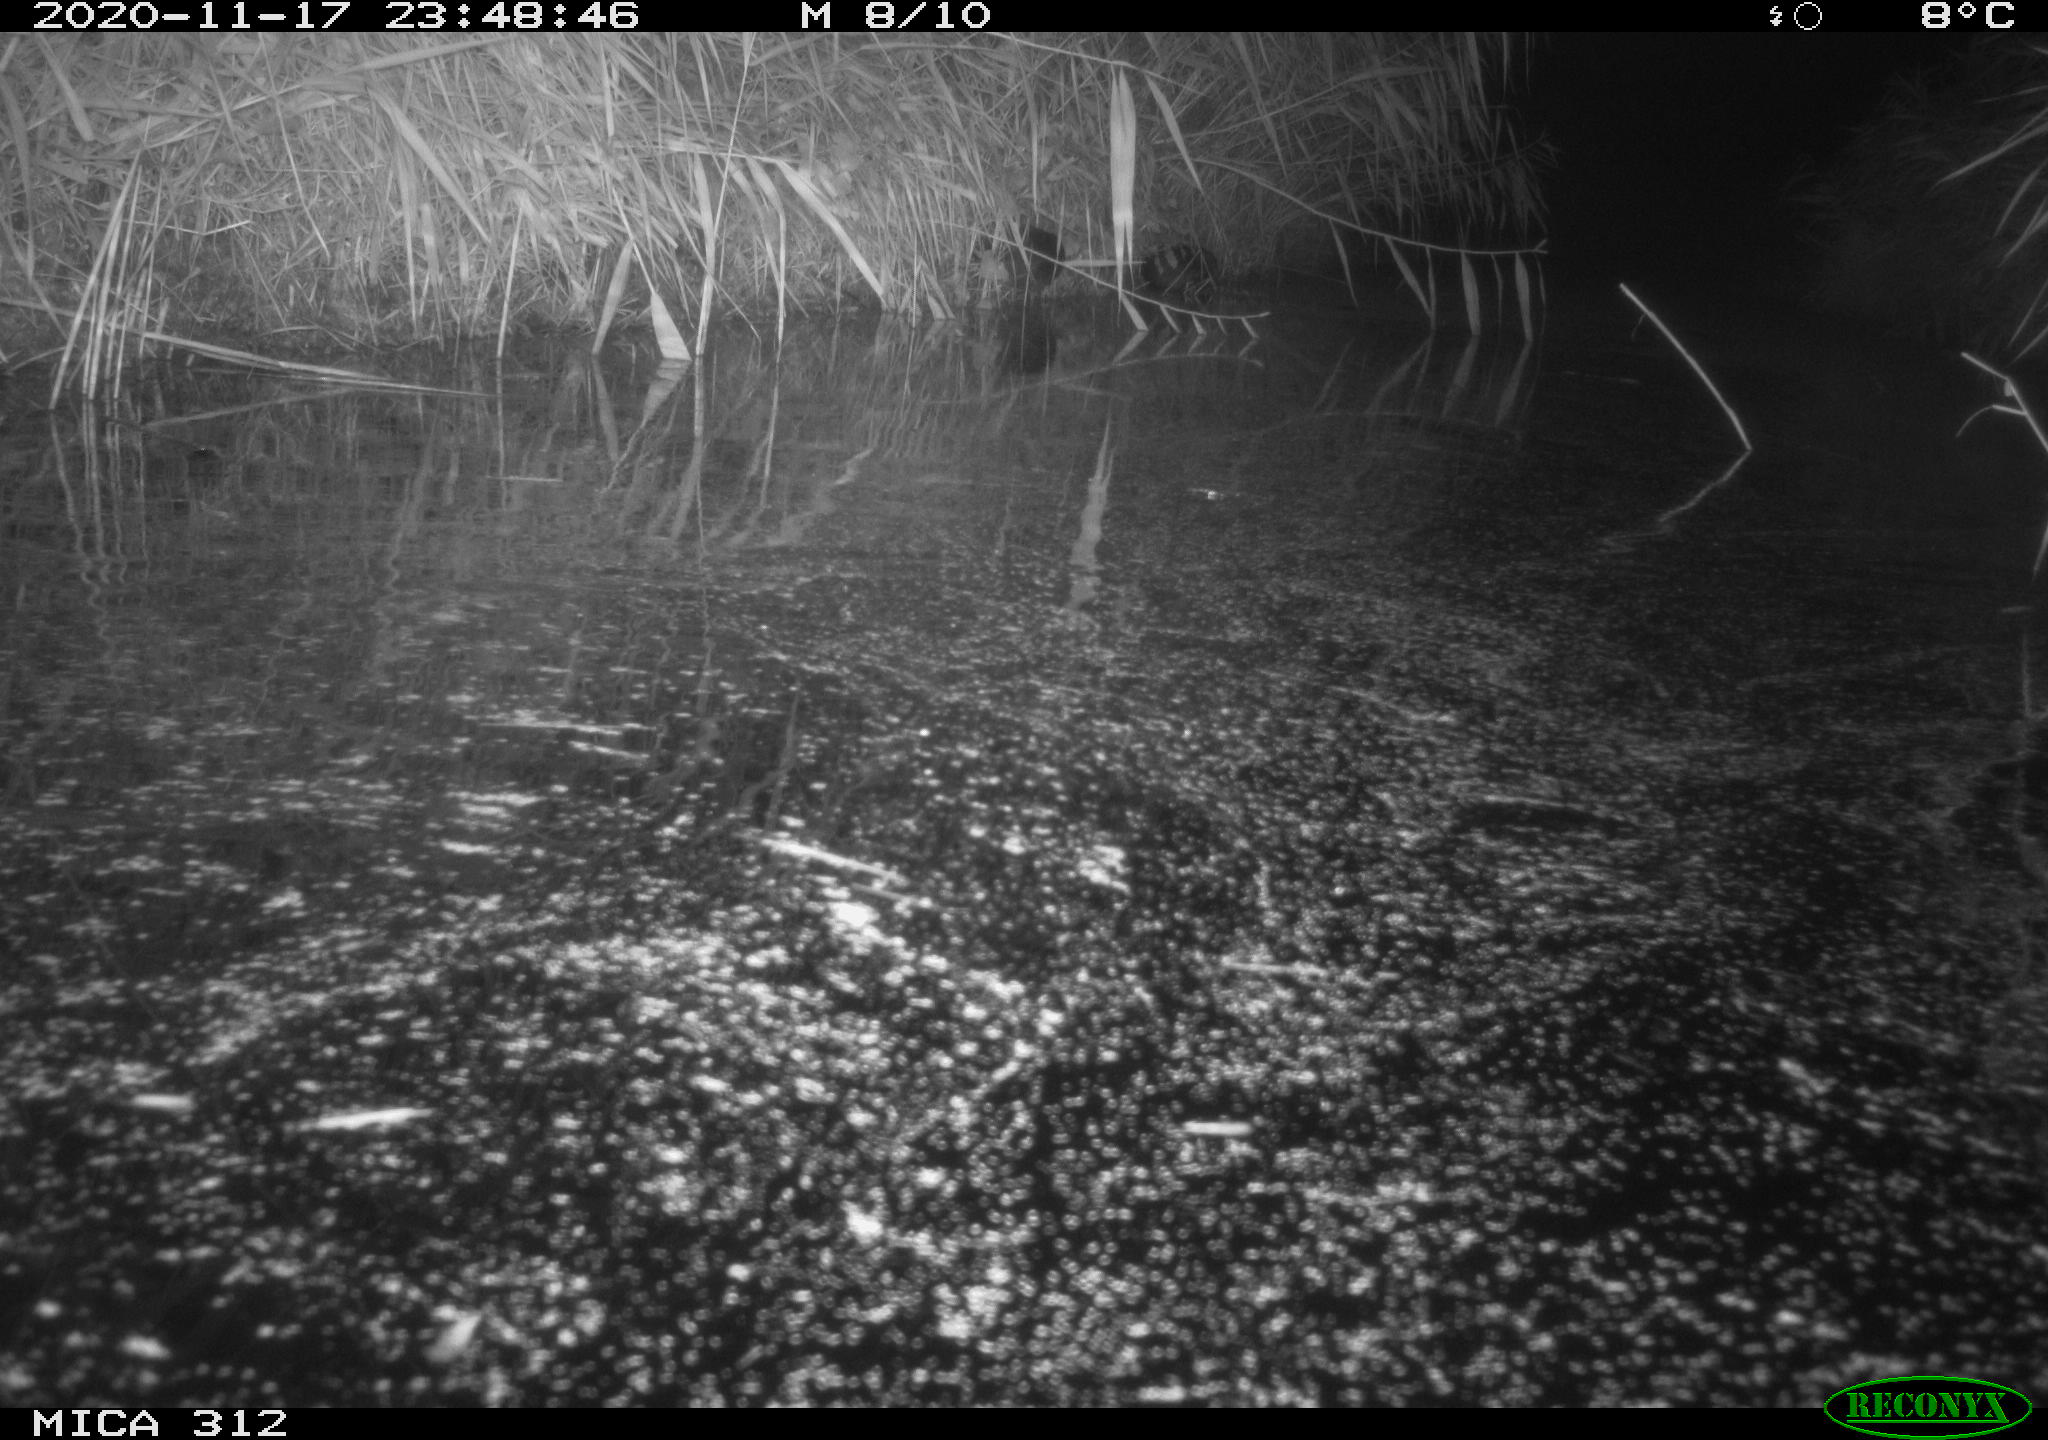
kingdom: Animalia
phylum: Chordata
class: Mammalia
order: Rodentia
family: Muridae
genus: Rattus
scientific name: Rattus norvegicus
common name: Brown rat
